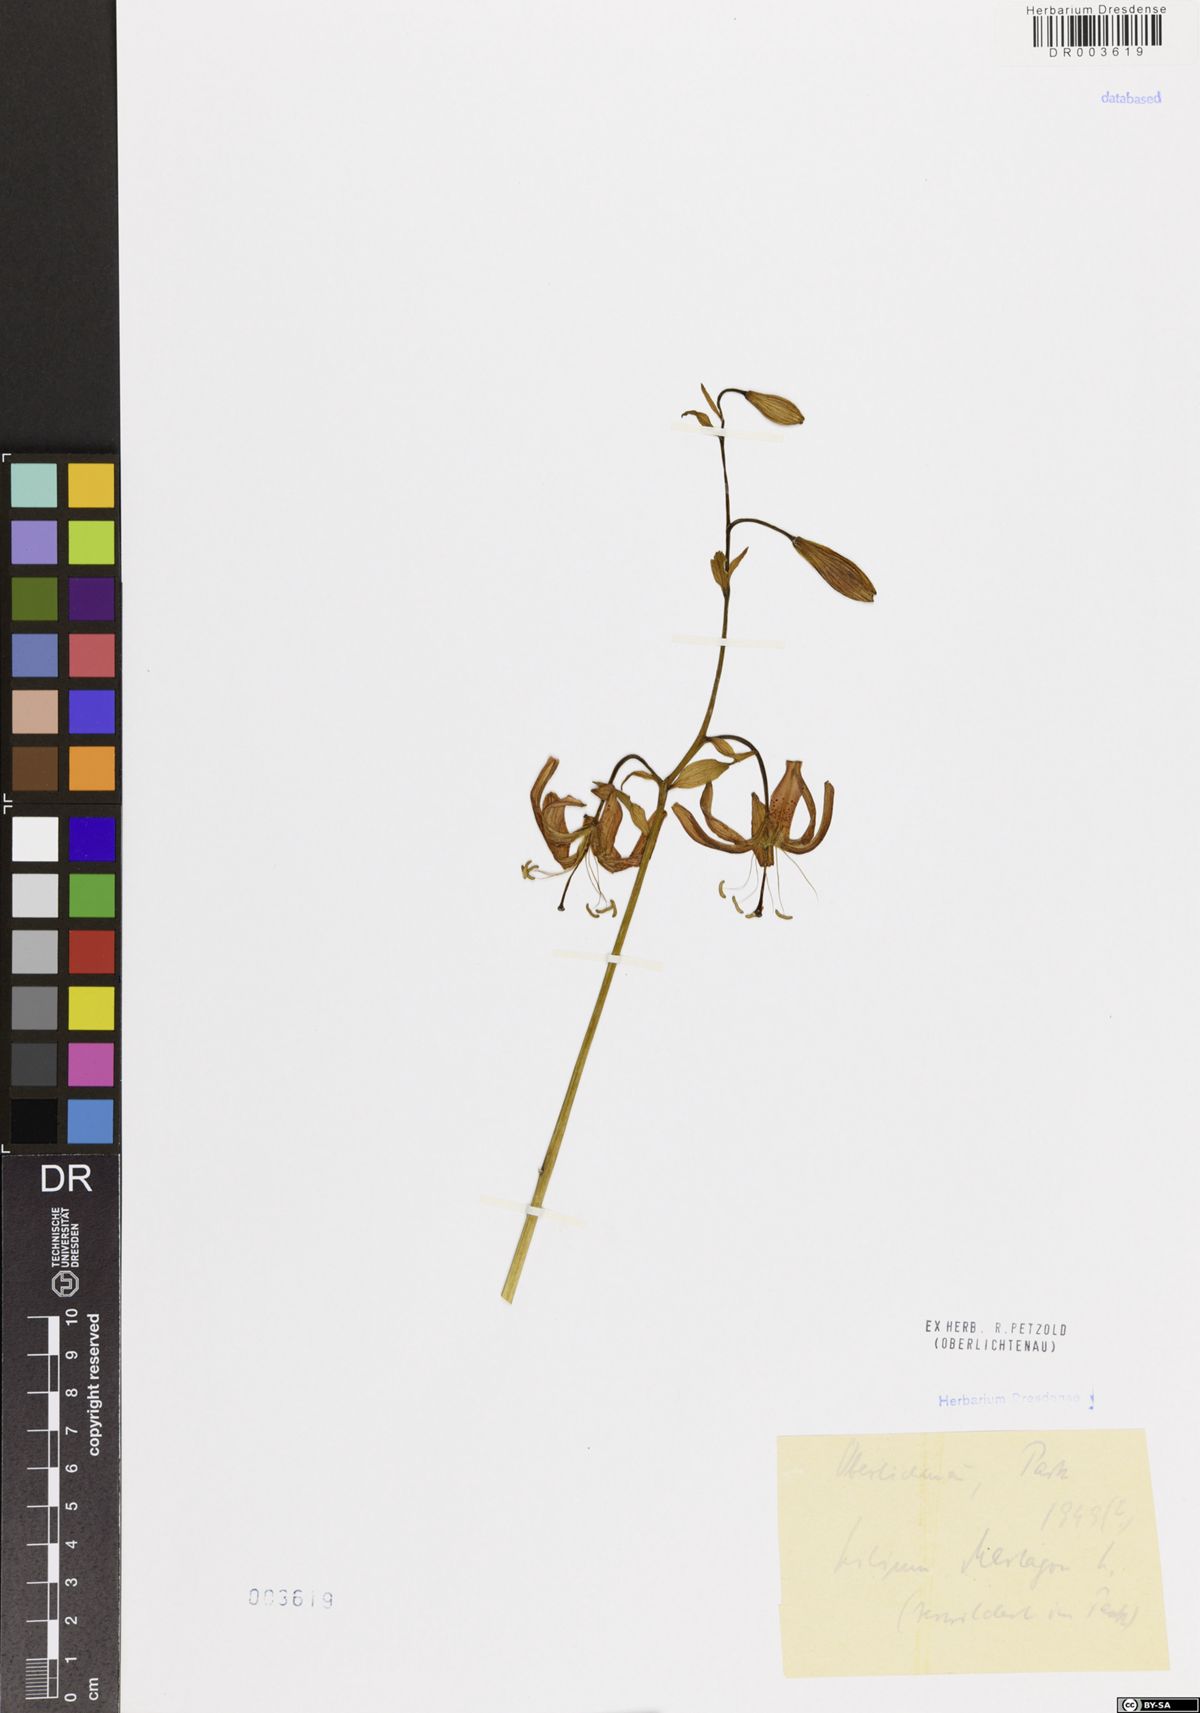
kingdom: Plantae
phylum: Tracheophyta
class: Liliopsida
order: Liliales
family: Liliaceae
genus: Lilium
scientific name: Lilium martagon
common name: Martagon lily
